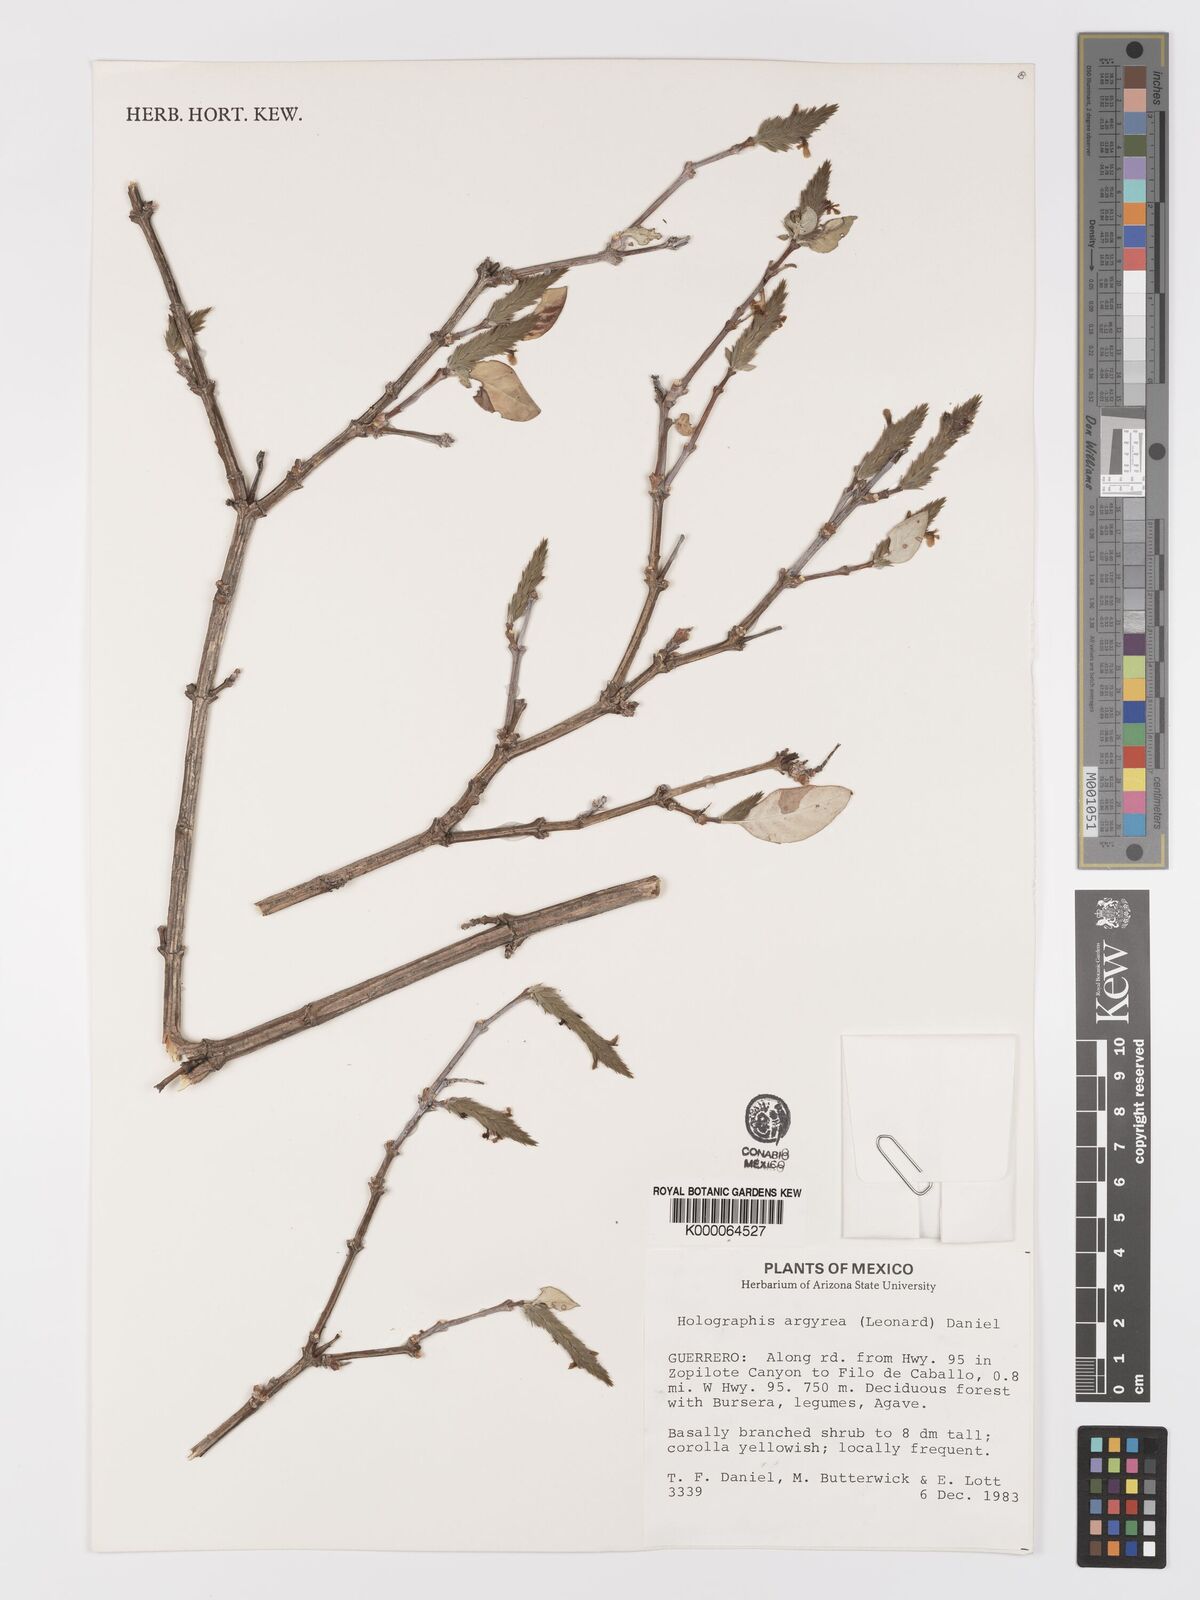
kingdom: Plantae
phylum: Tracheophyta
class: Magnoliopsida
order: Lamiales
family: Acanthaceae
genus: Holographis
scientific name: Holographis argyrea
